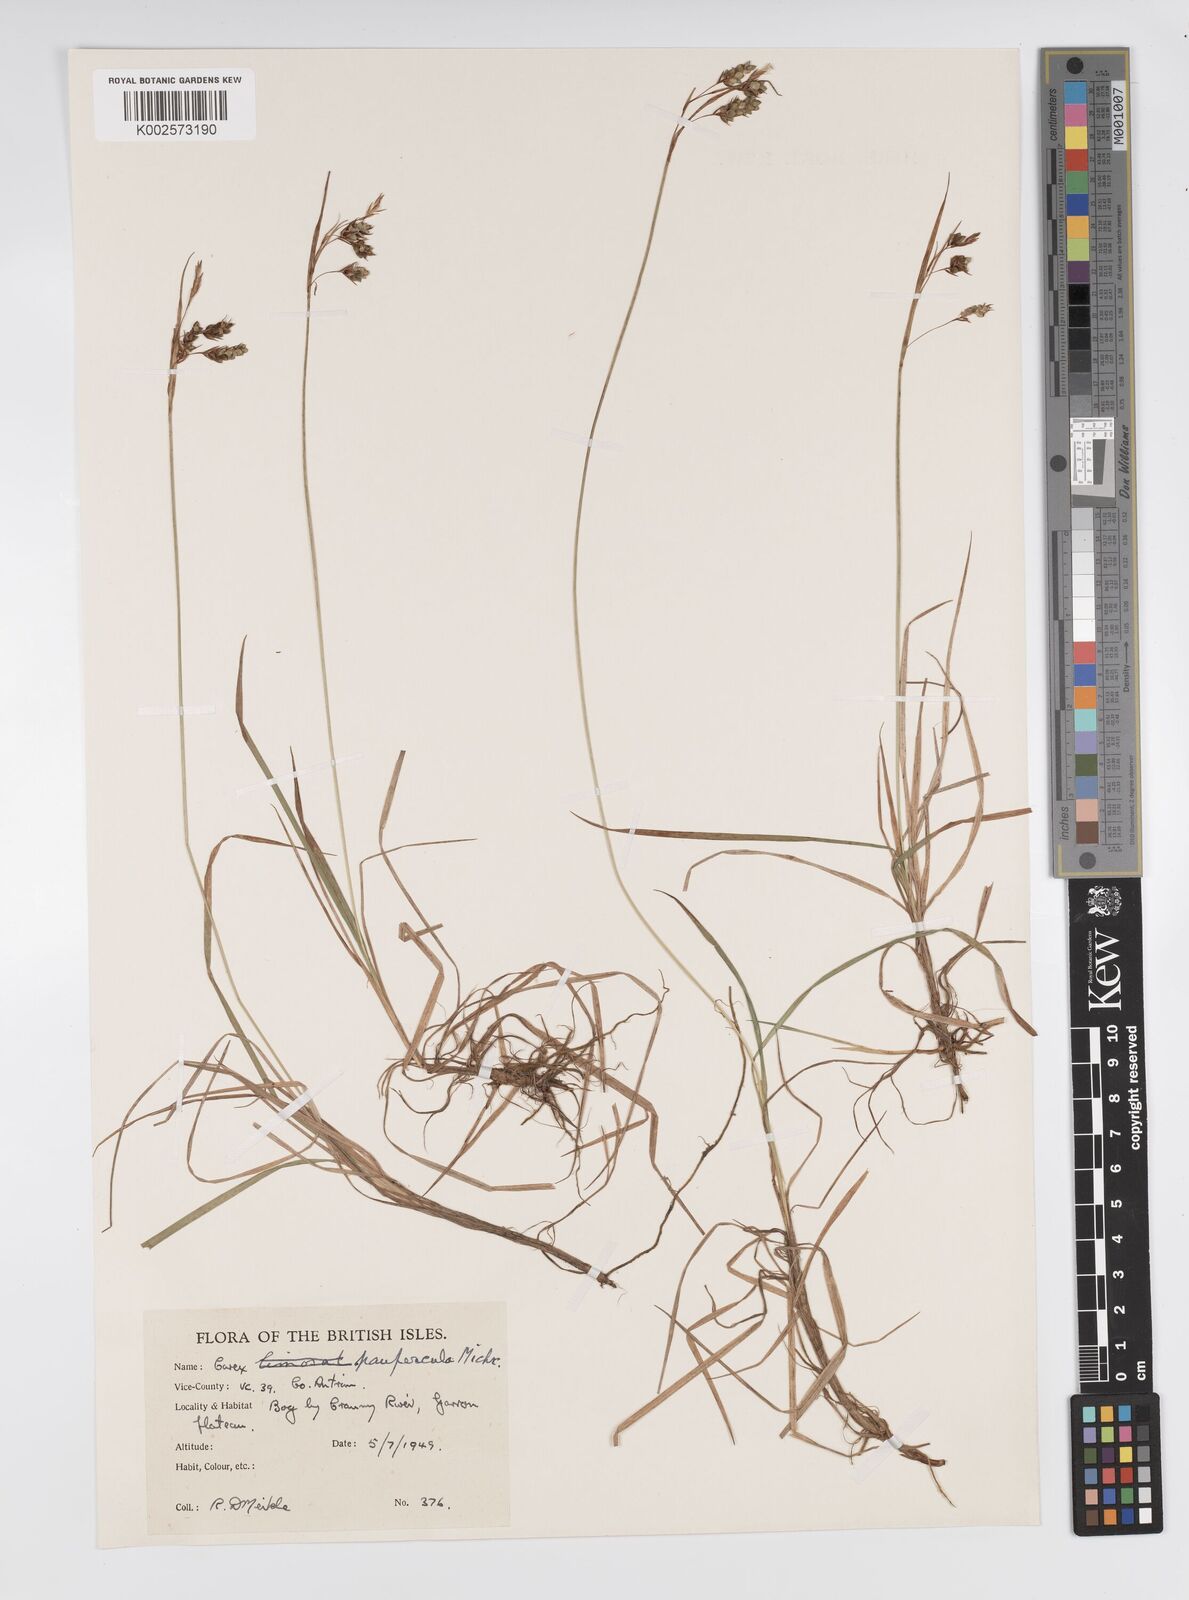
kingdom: Plantae
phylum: Tracheophyta
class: Liliopsida
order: Poales
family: Cyperaceae
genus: Carex
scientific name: Carex magellanica
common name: Bog sedge
